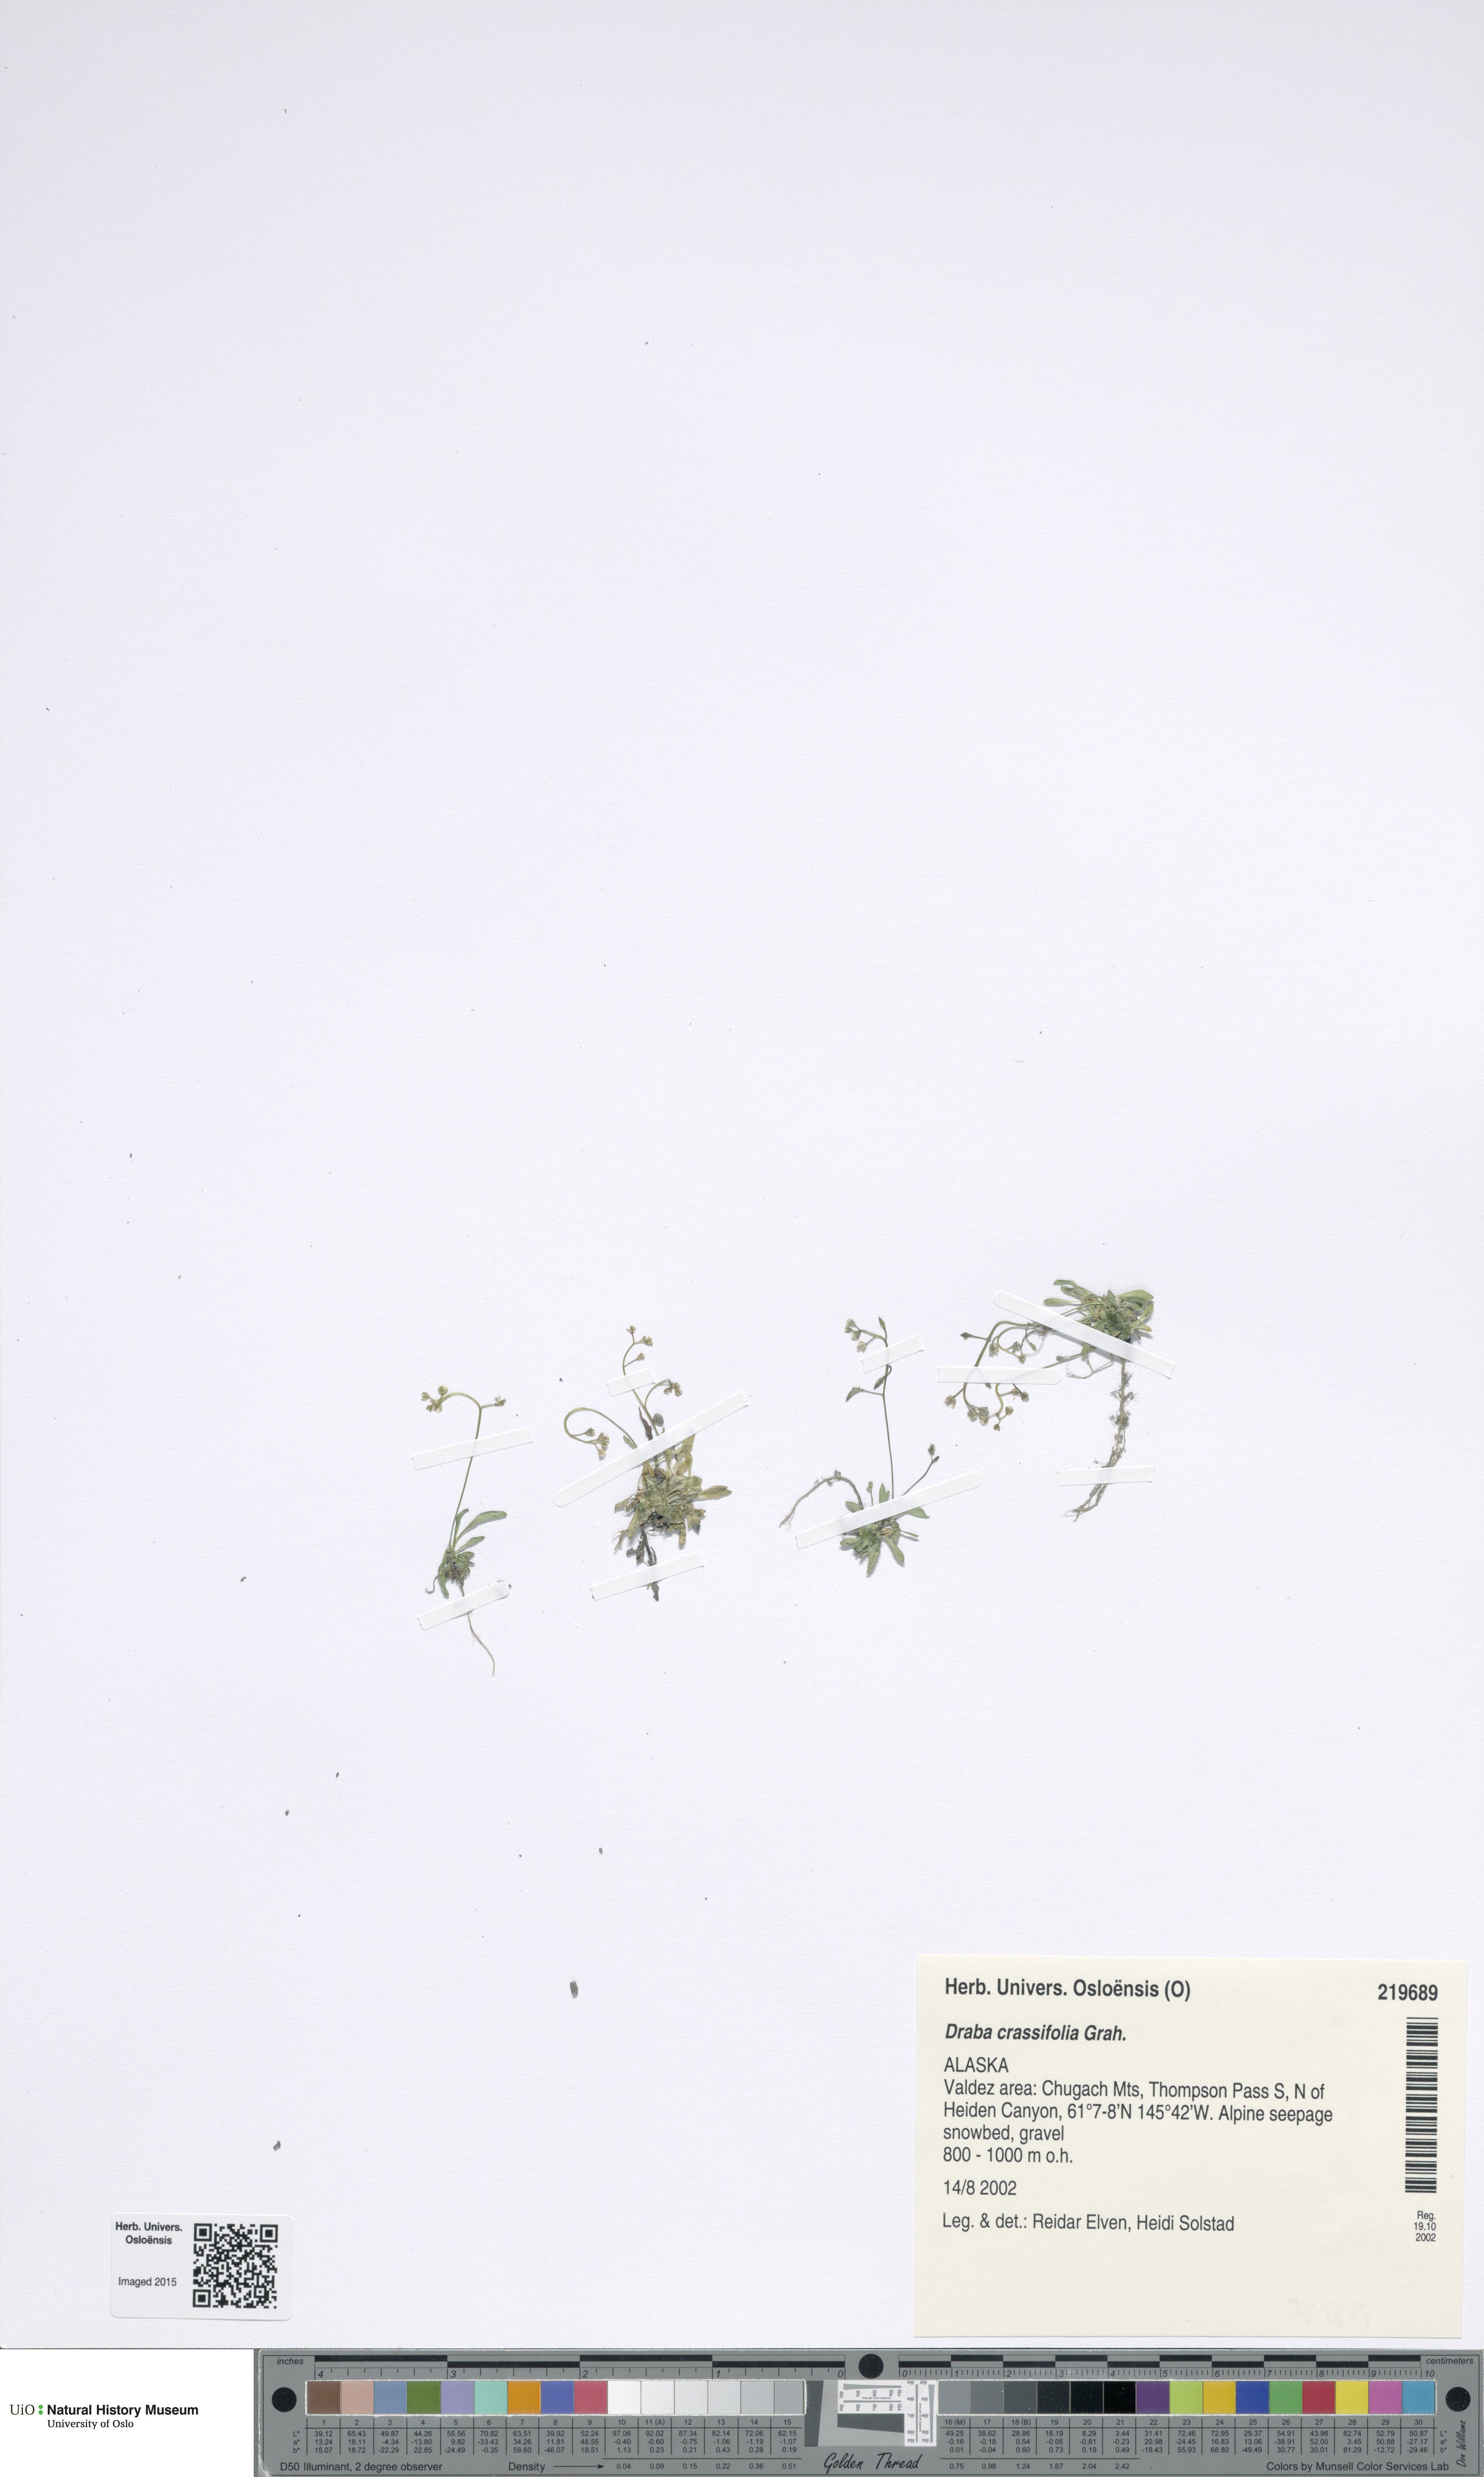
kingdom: Plantae
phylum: Tracheophyta
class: Magnoliopsida
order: Brassicales
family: Brassicaceae
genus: Draba
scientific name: Draba crassifolia
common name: Rocky mountain draba
